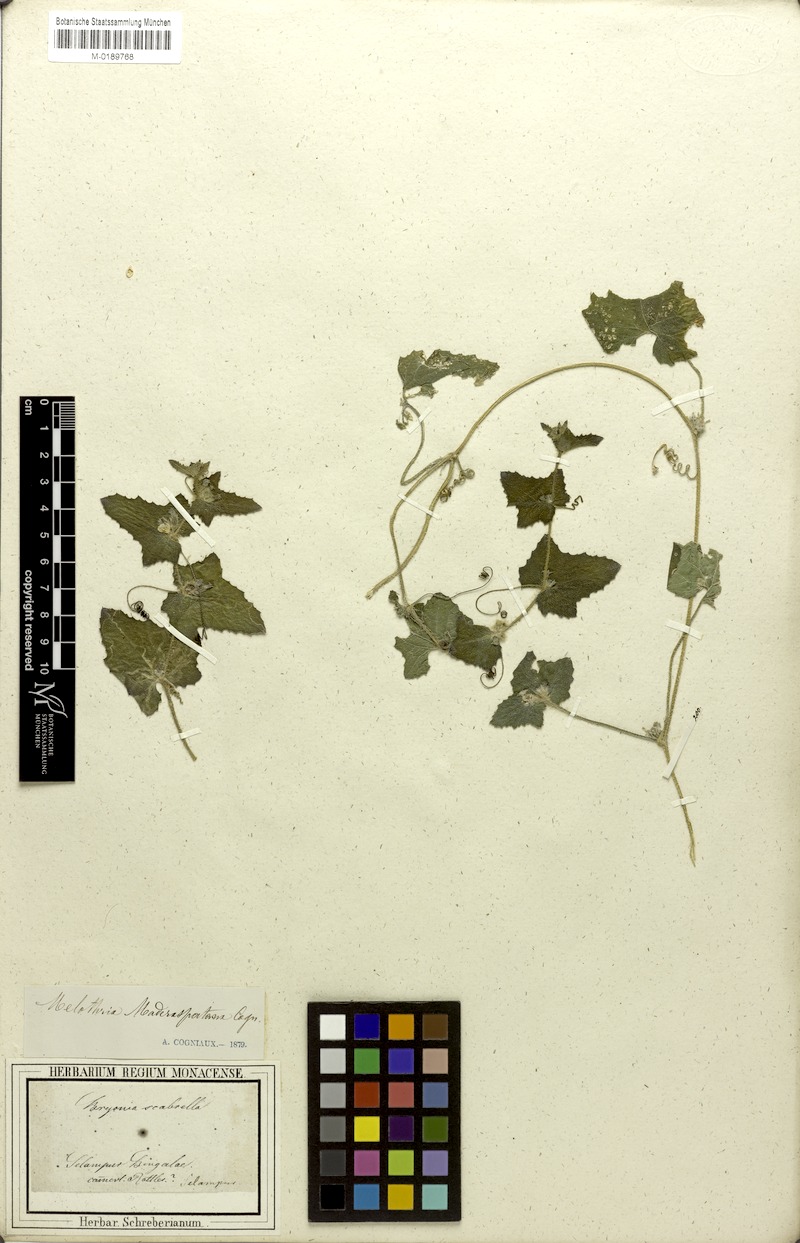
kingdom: Plantae
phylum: Tracheophyta
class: Magnoliopsida
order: Cucurbitales
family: Cucurbitaceae
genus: Cucumis
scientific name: Cucumis maderaspatanus
